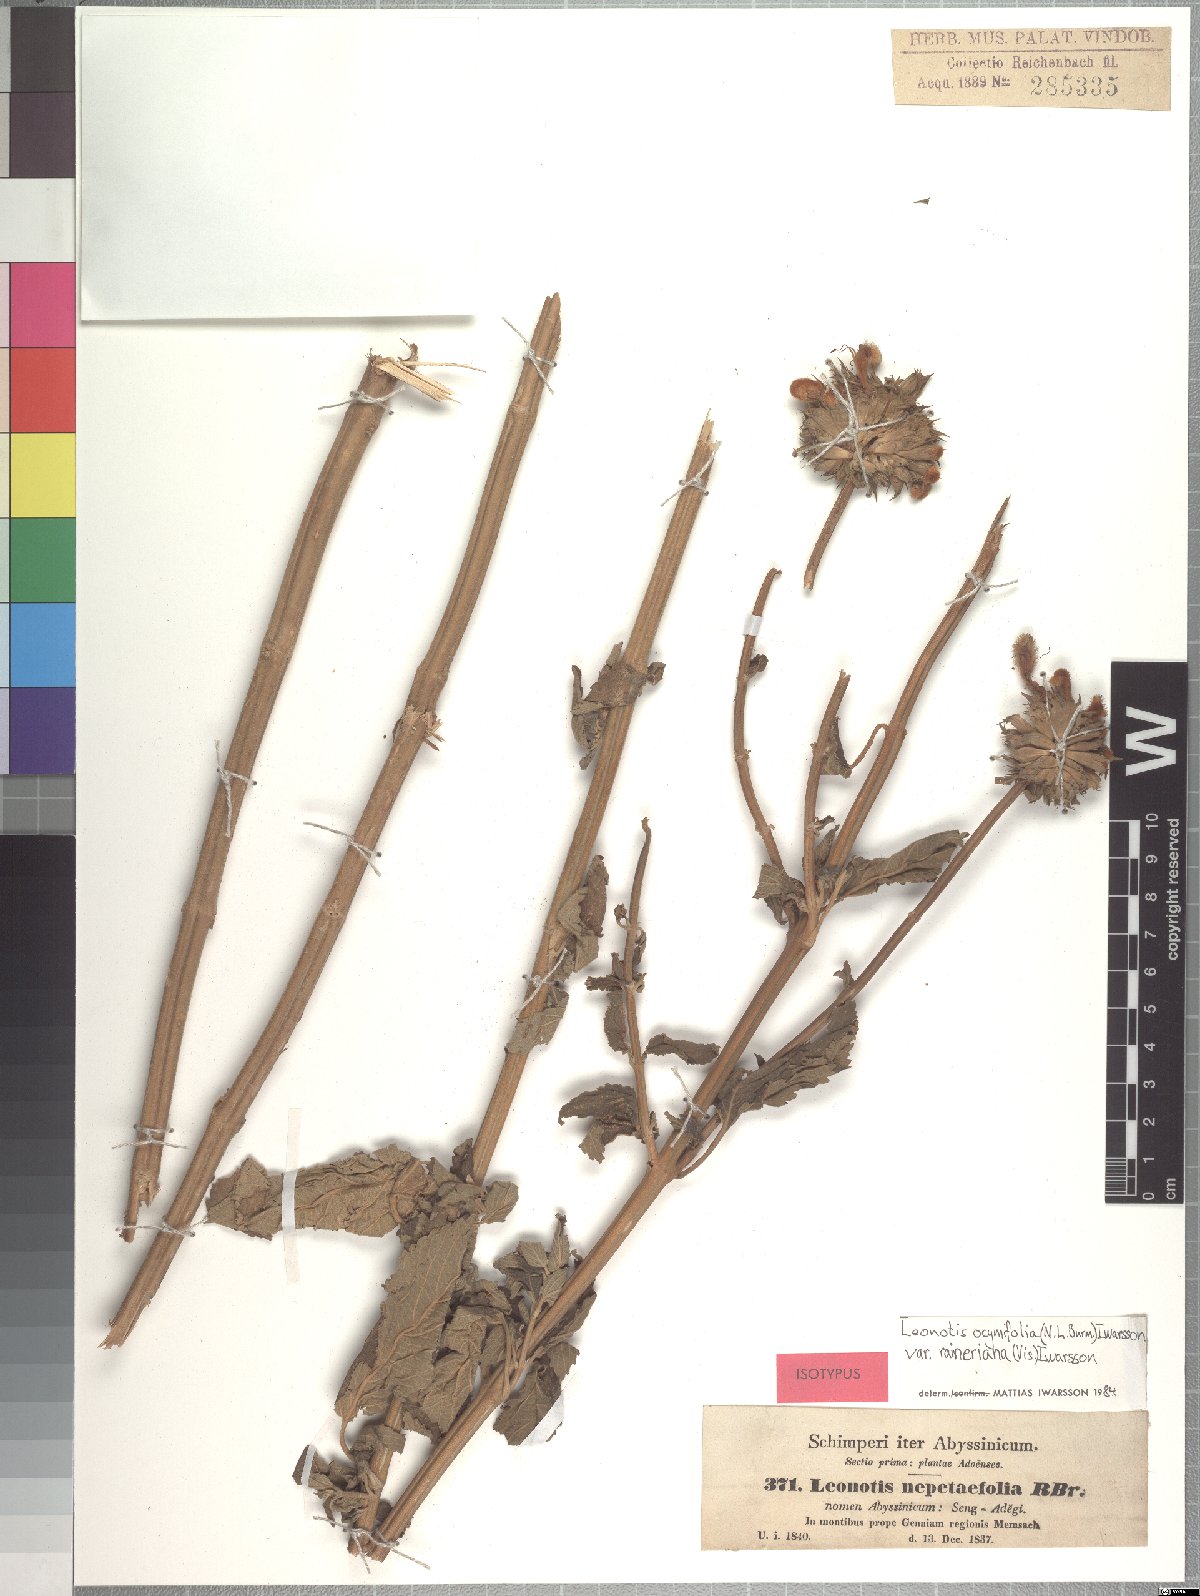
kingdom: Plantae
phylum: Tracheophyta
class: Magnoliopsida
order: Lamiales
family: Lamiaceae
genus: Leonotis
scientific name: Leonotis ocymifolia
